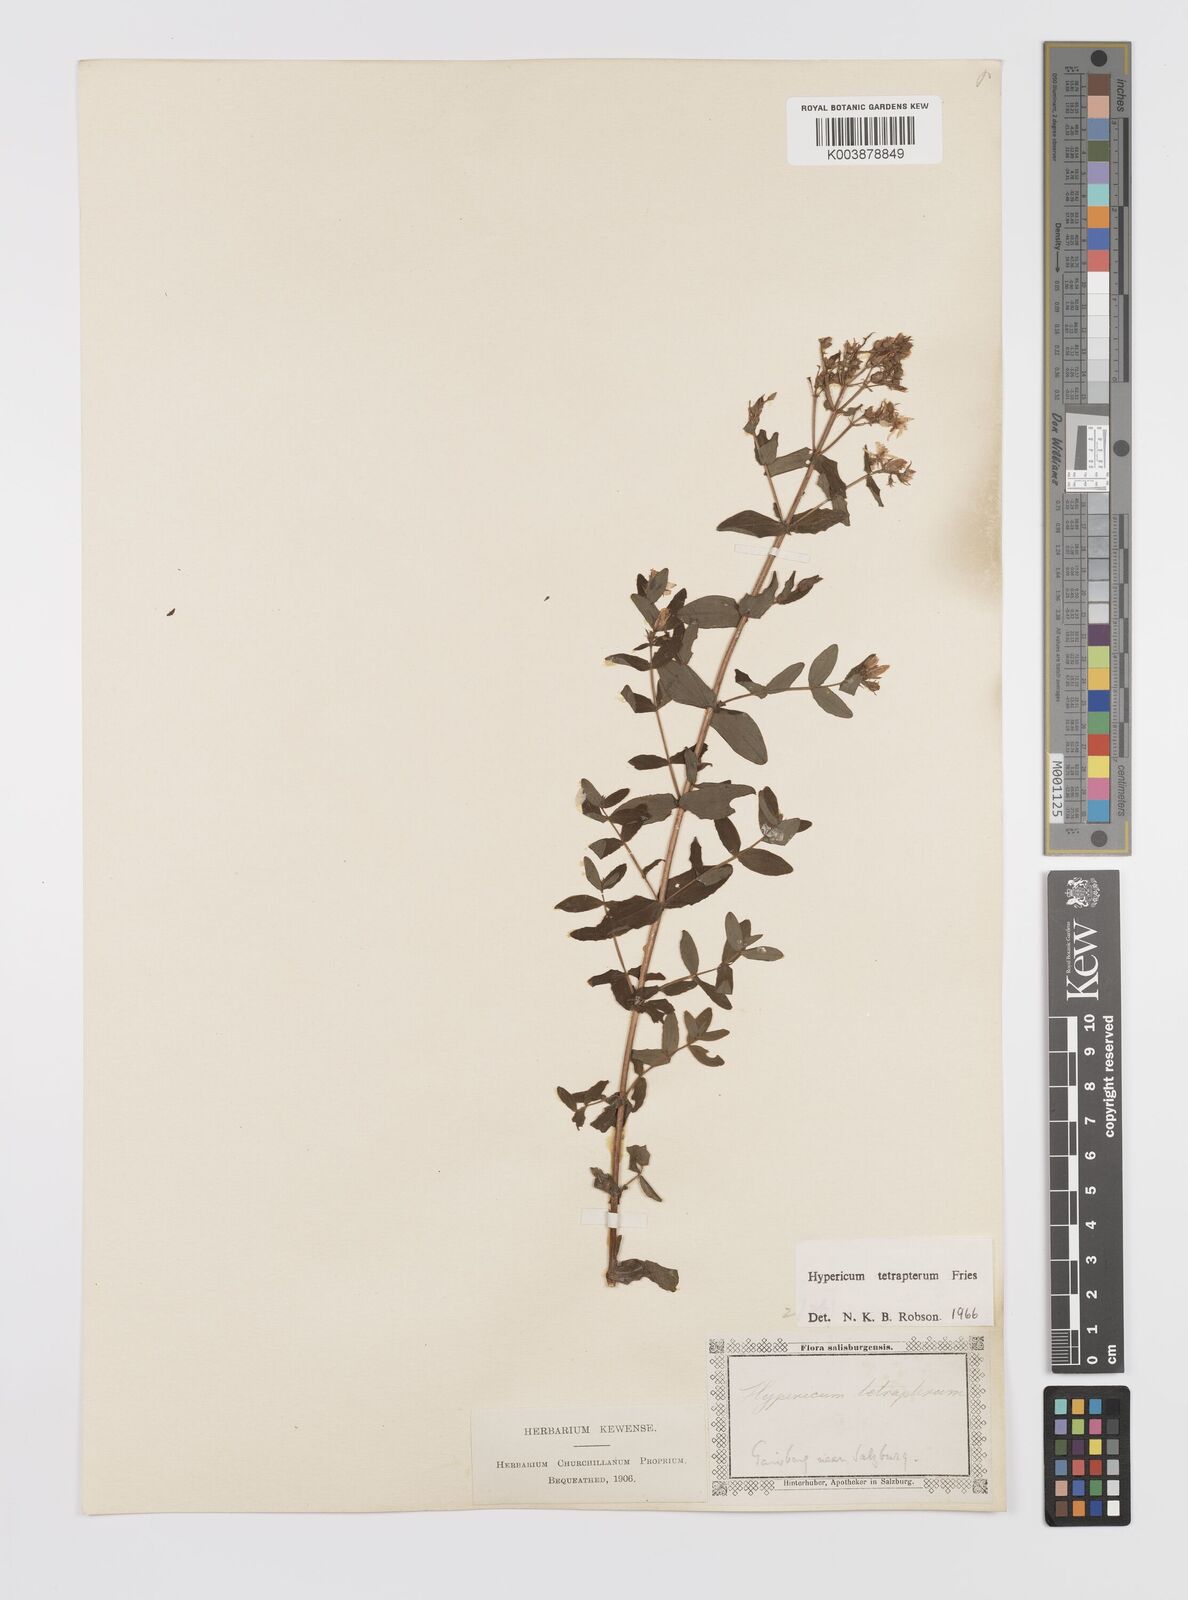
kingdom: Plantae
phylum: Tracheophyta
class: Magnoliopsida
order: Malpighiales
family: Hypericaceae
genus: Hypericum
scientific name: Hypericum tetrapterum
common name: Square-stalked st. john's-wort
